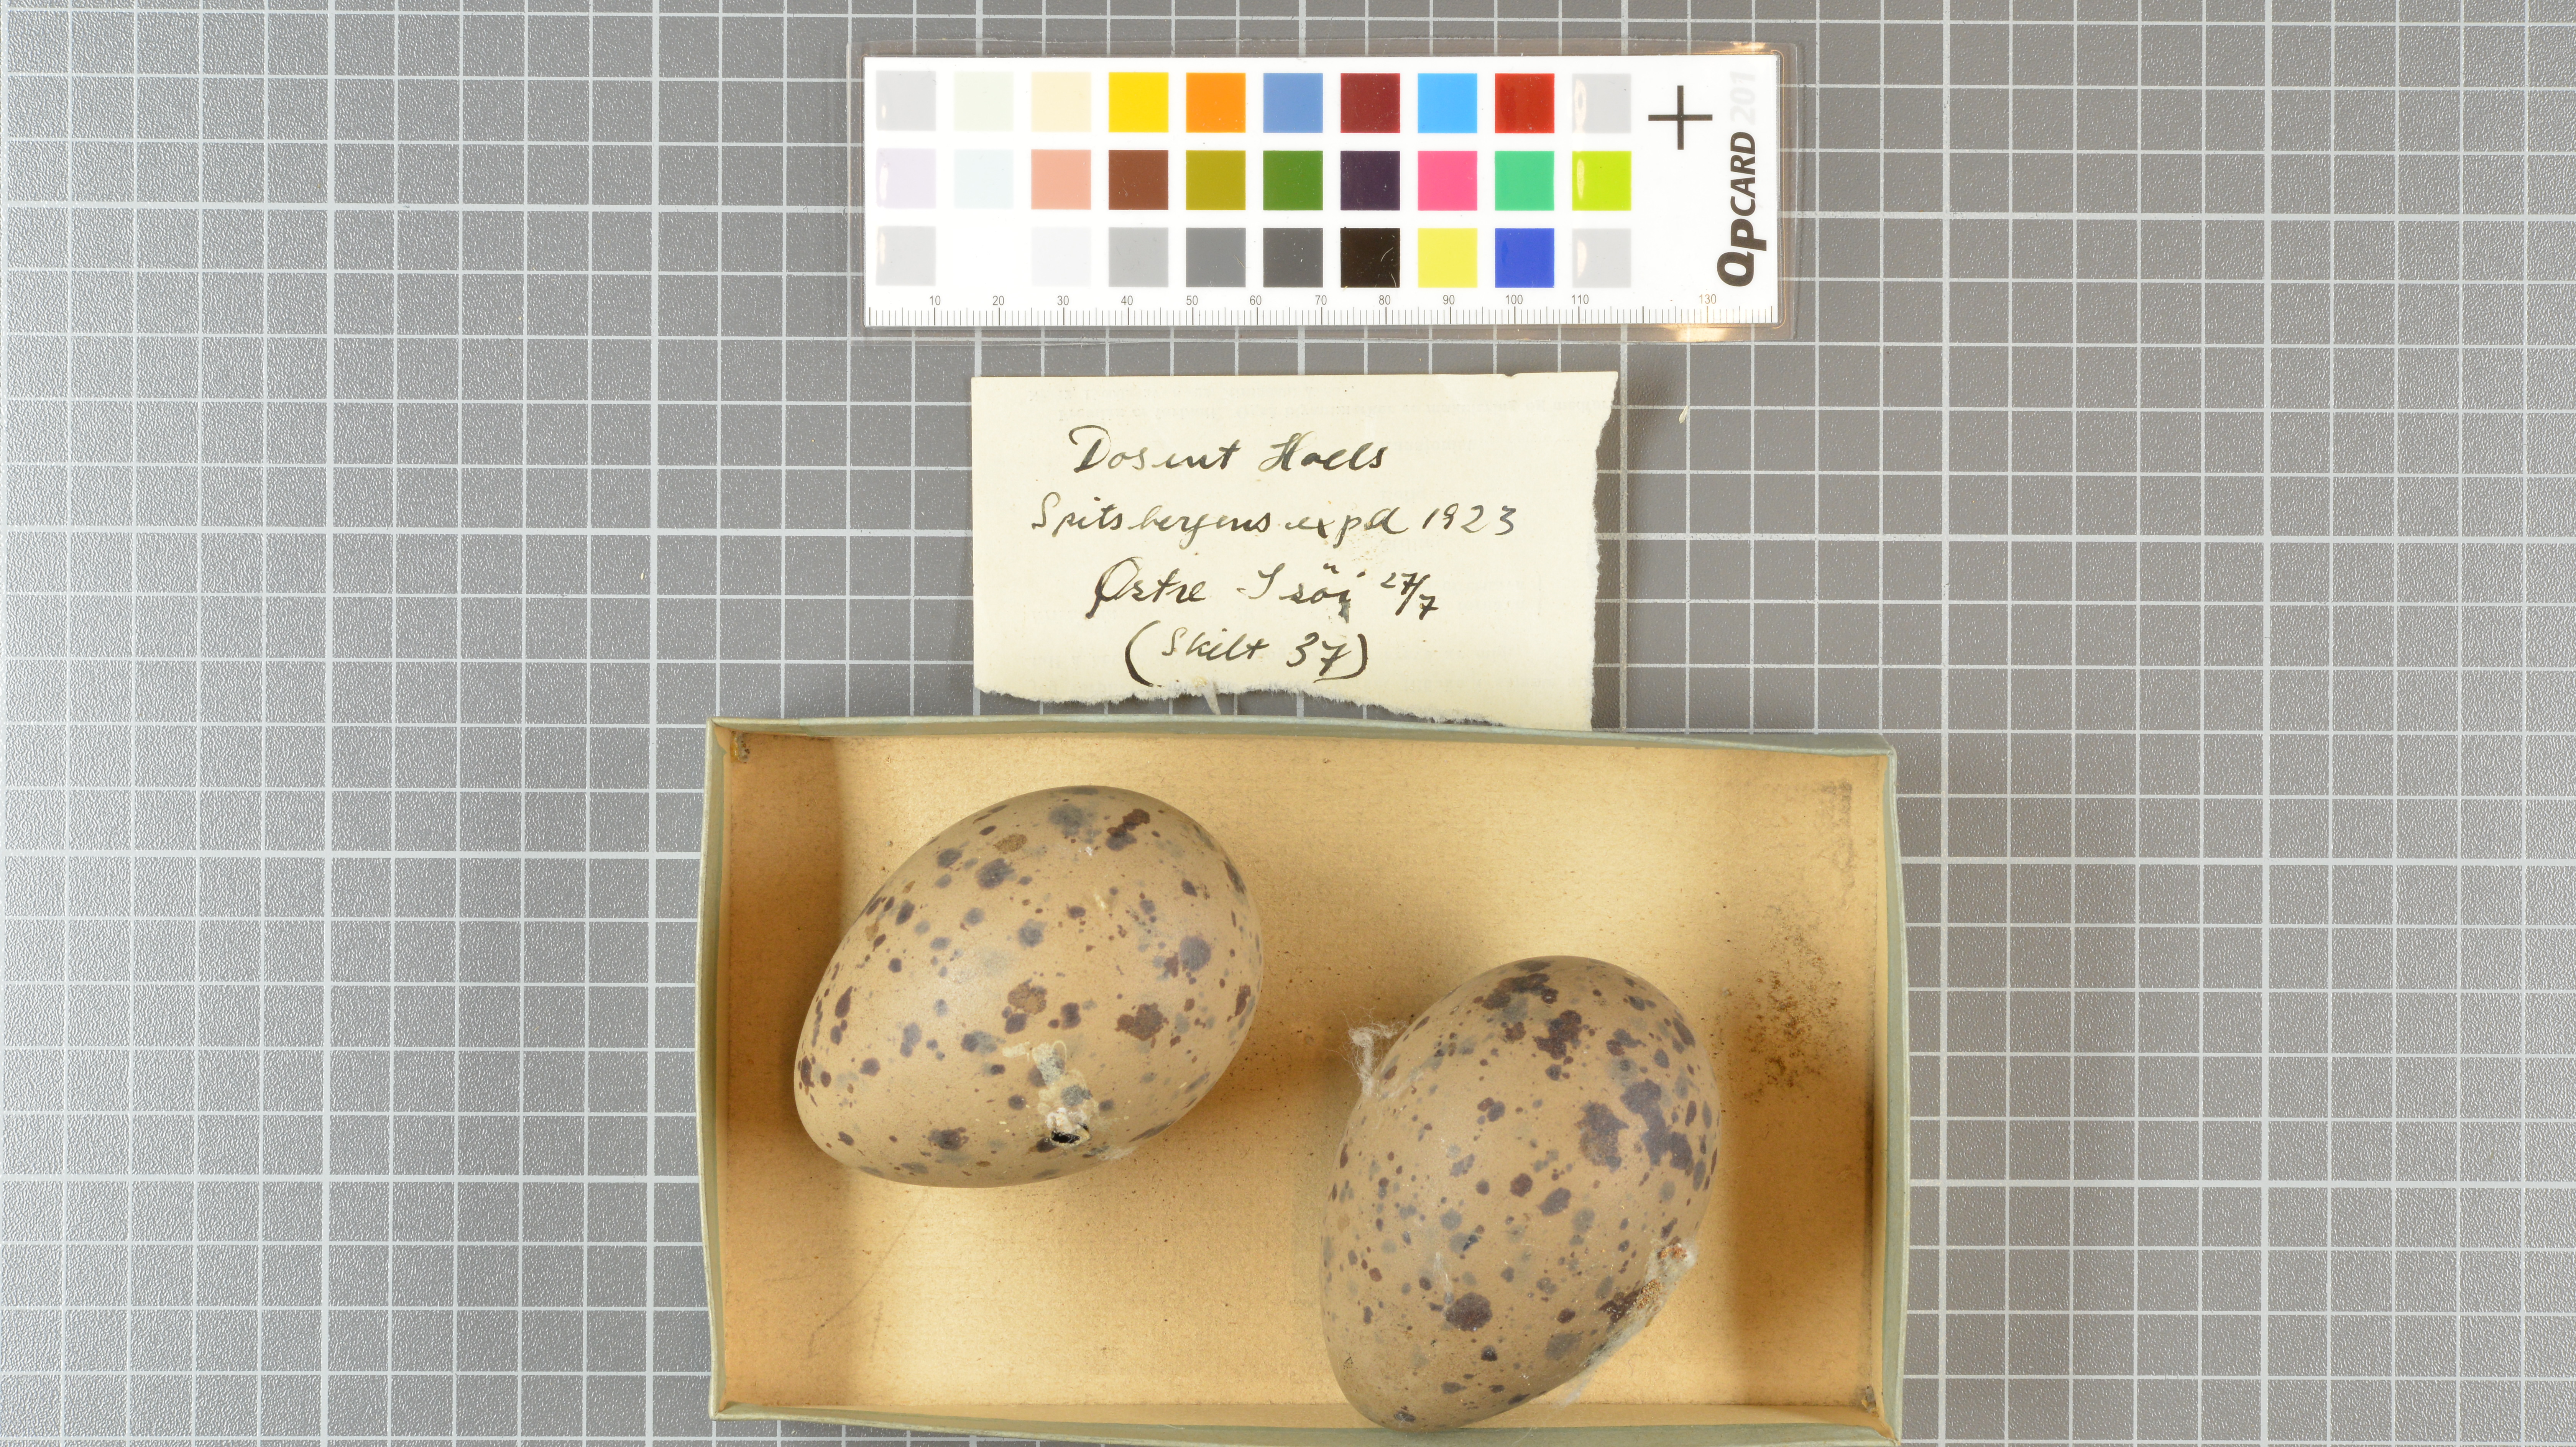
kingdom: Animalia
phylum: Chordata
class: Aves
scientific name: Aves
